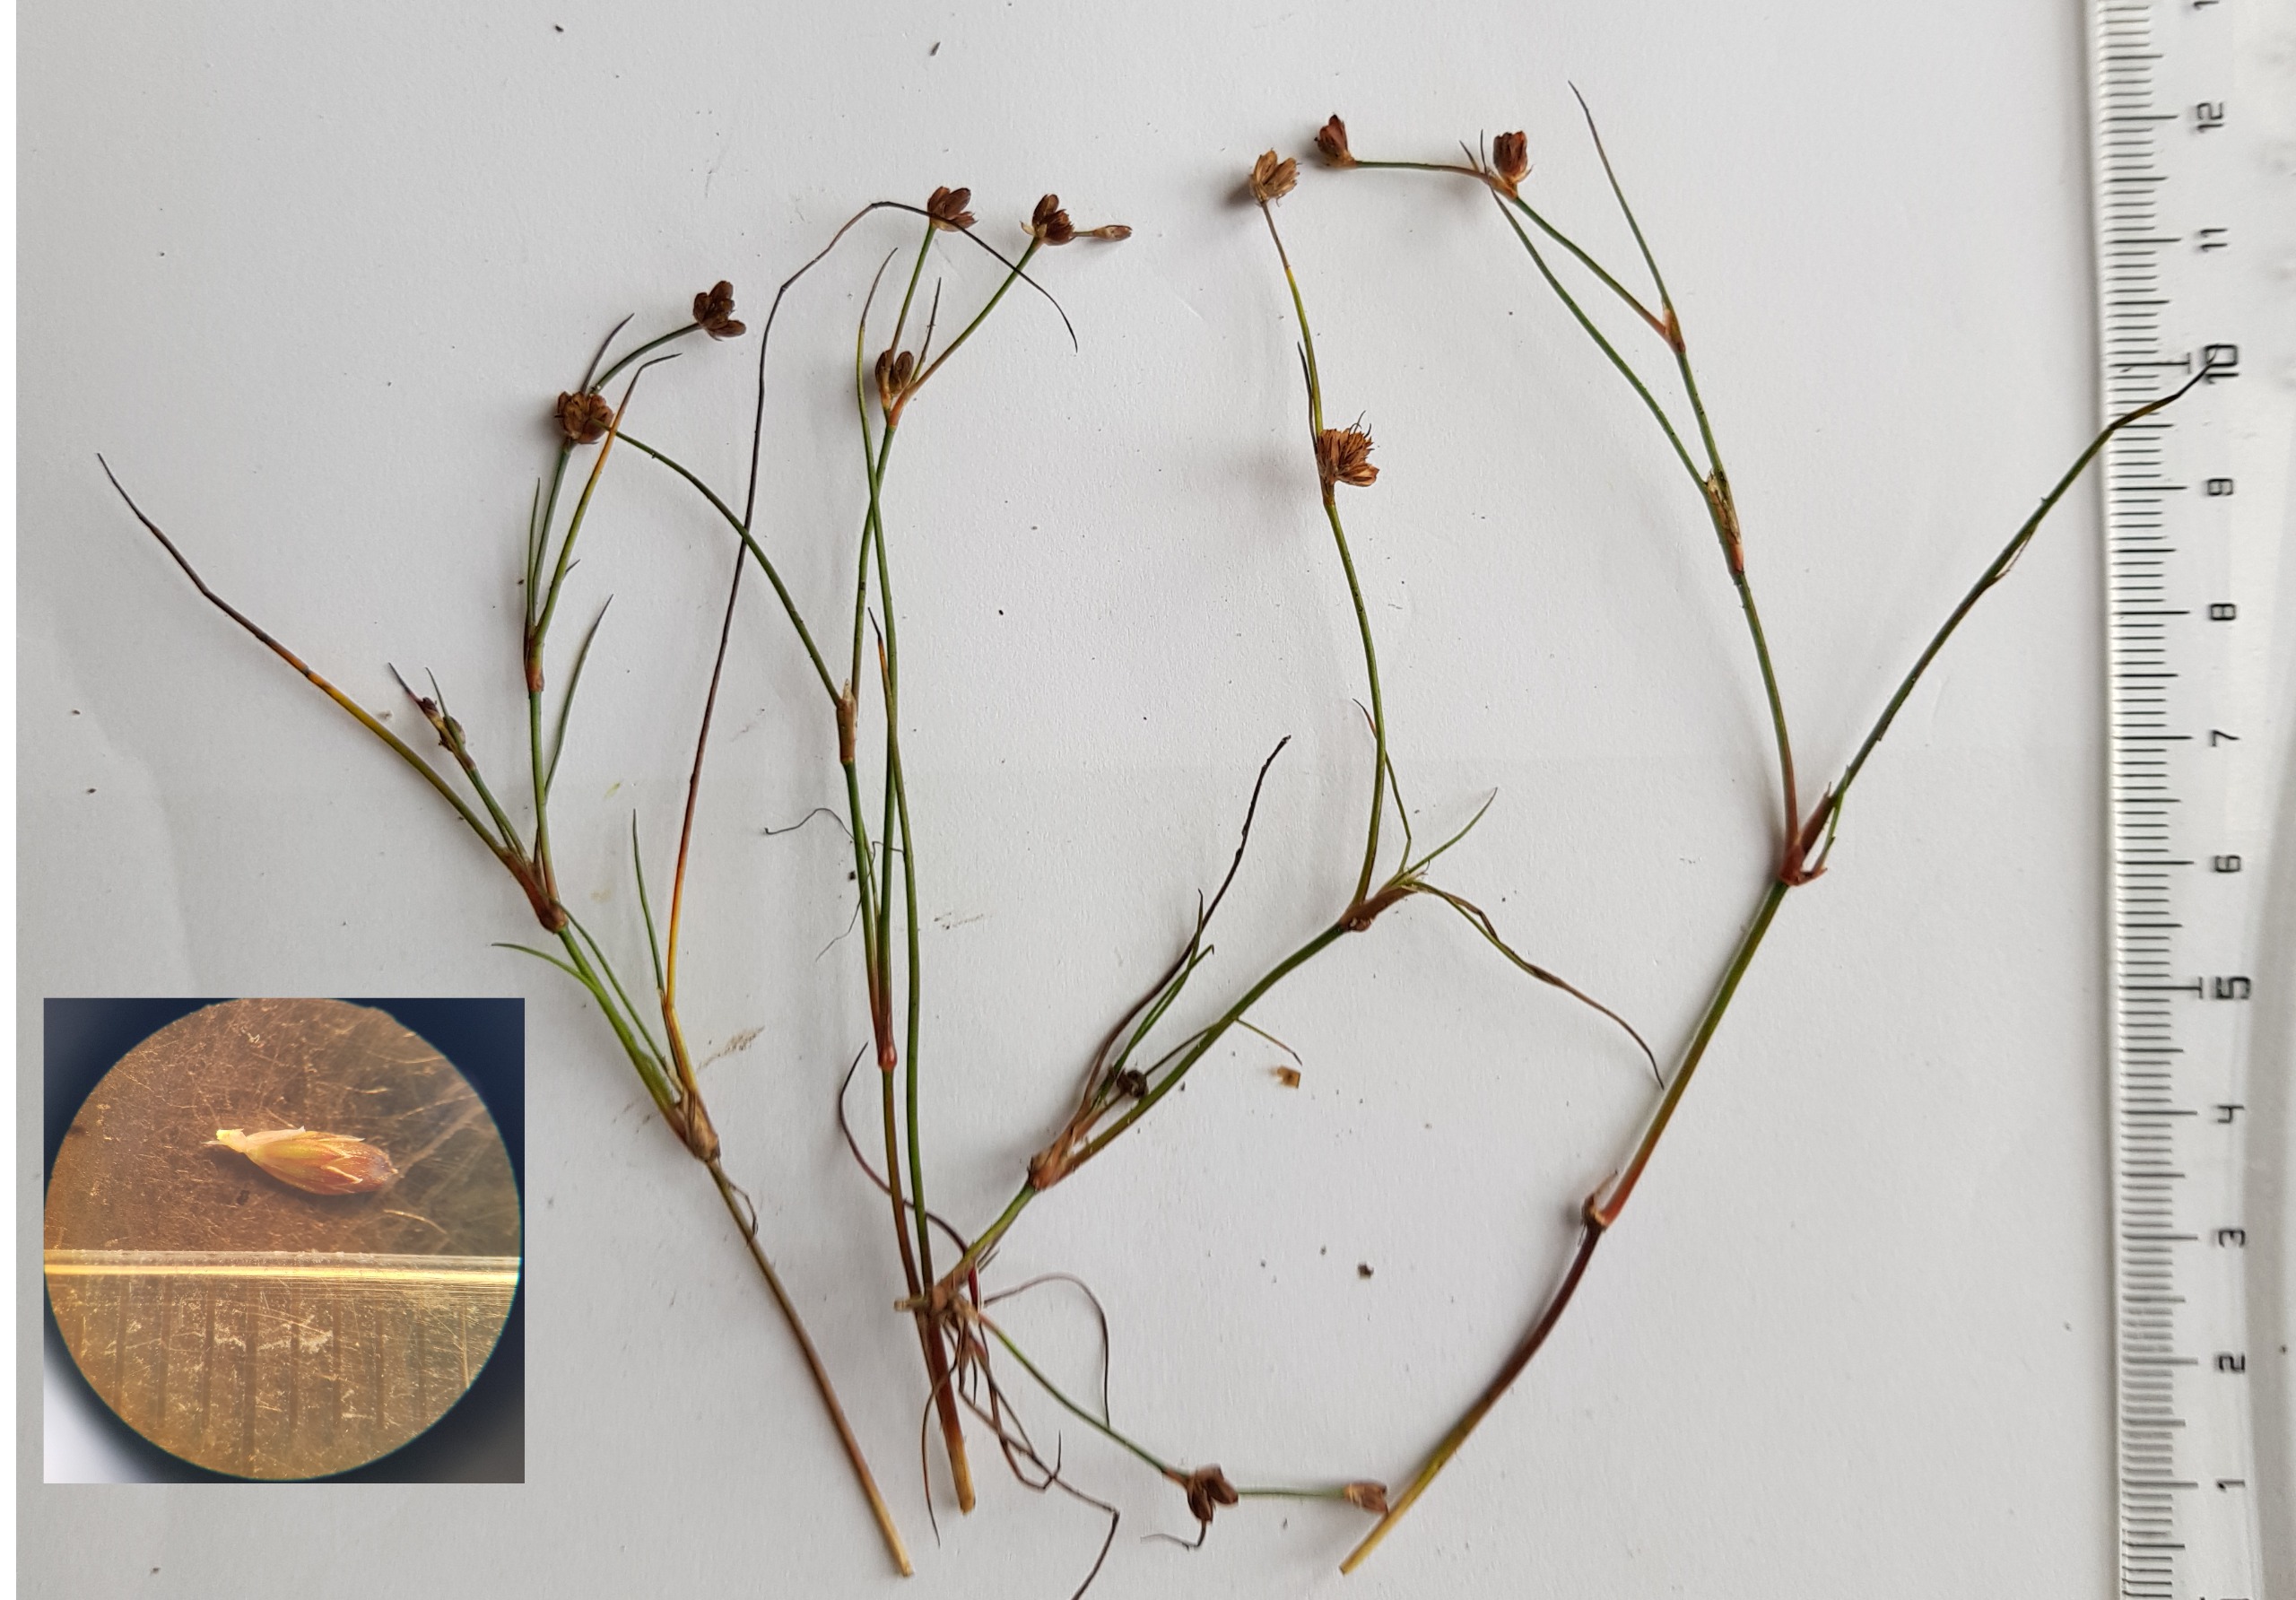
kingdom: Plantae
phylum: Tracheophyta
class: Liliopsida
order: Poales
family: Juncaceae
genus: Juncus
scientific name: Juncus bulbosus
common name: Liden siv
